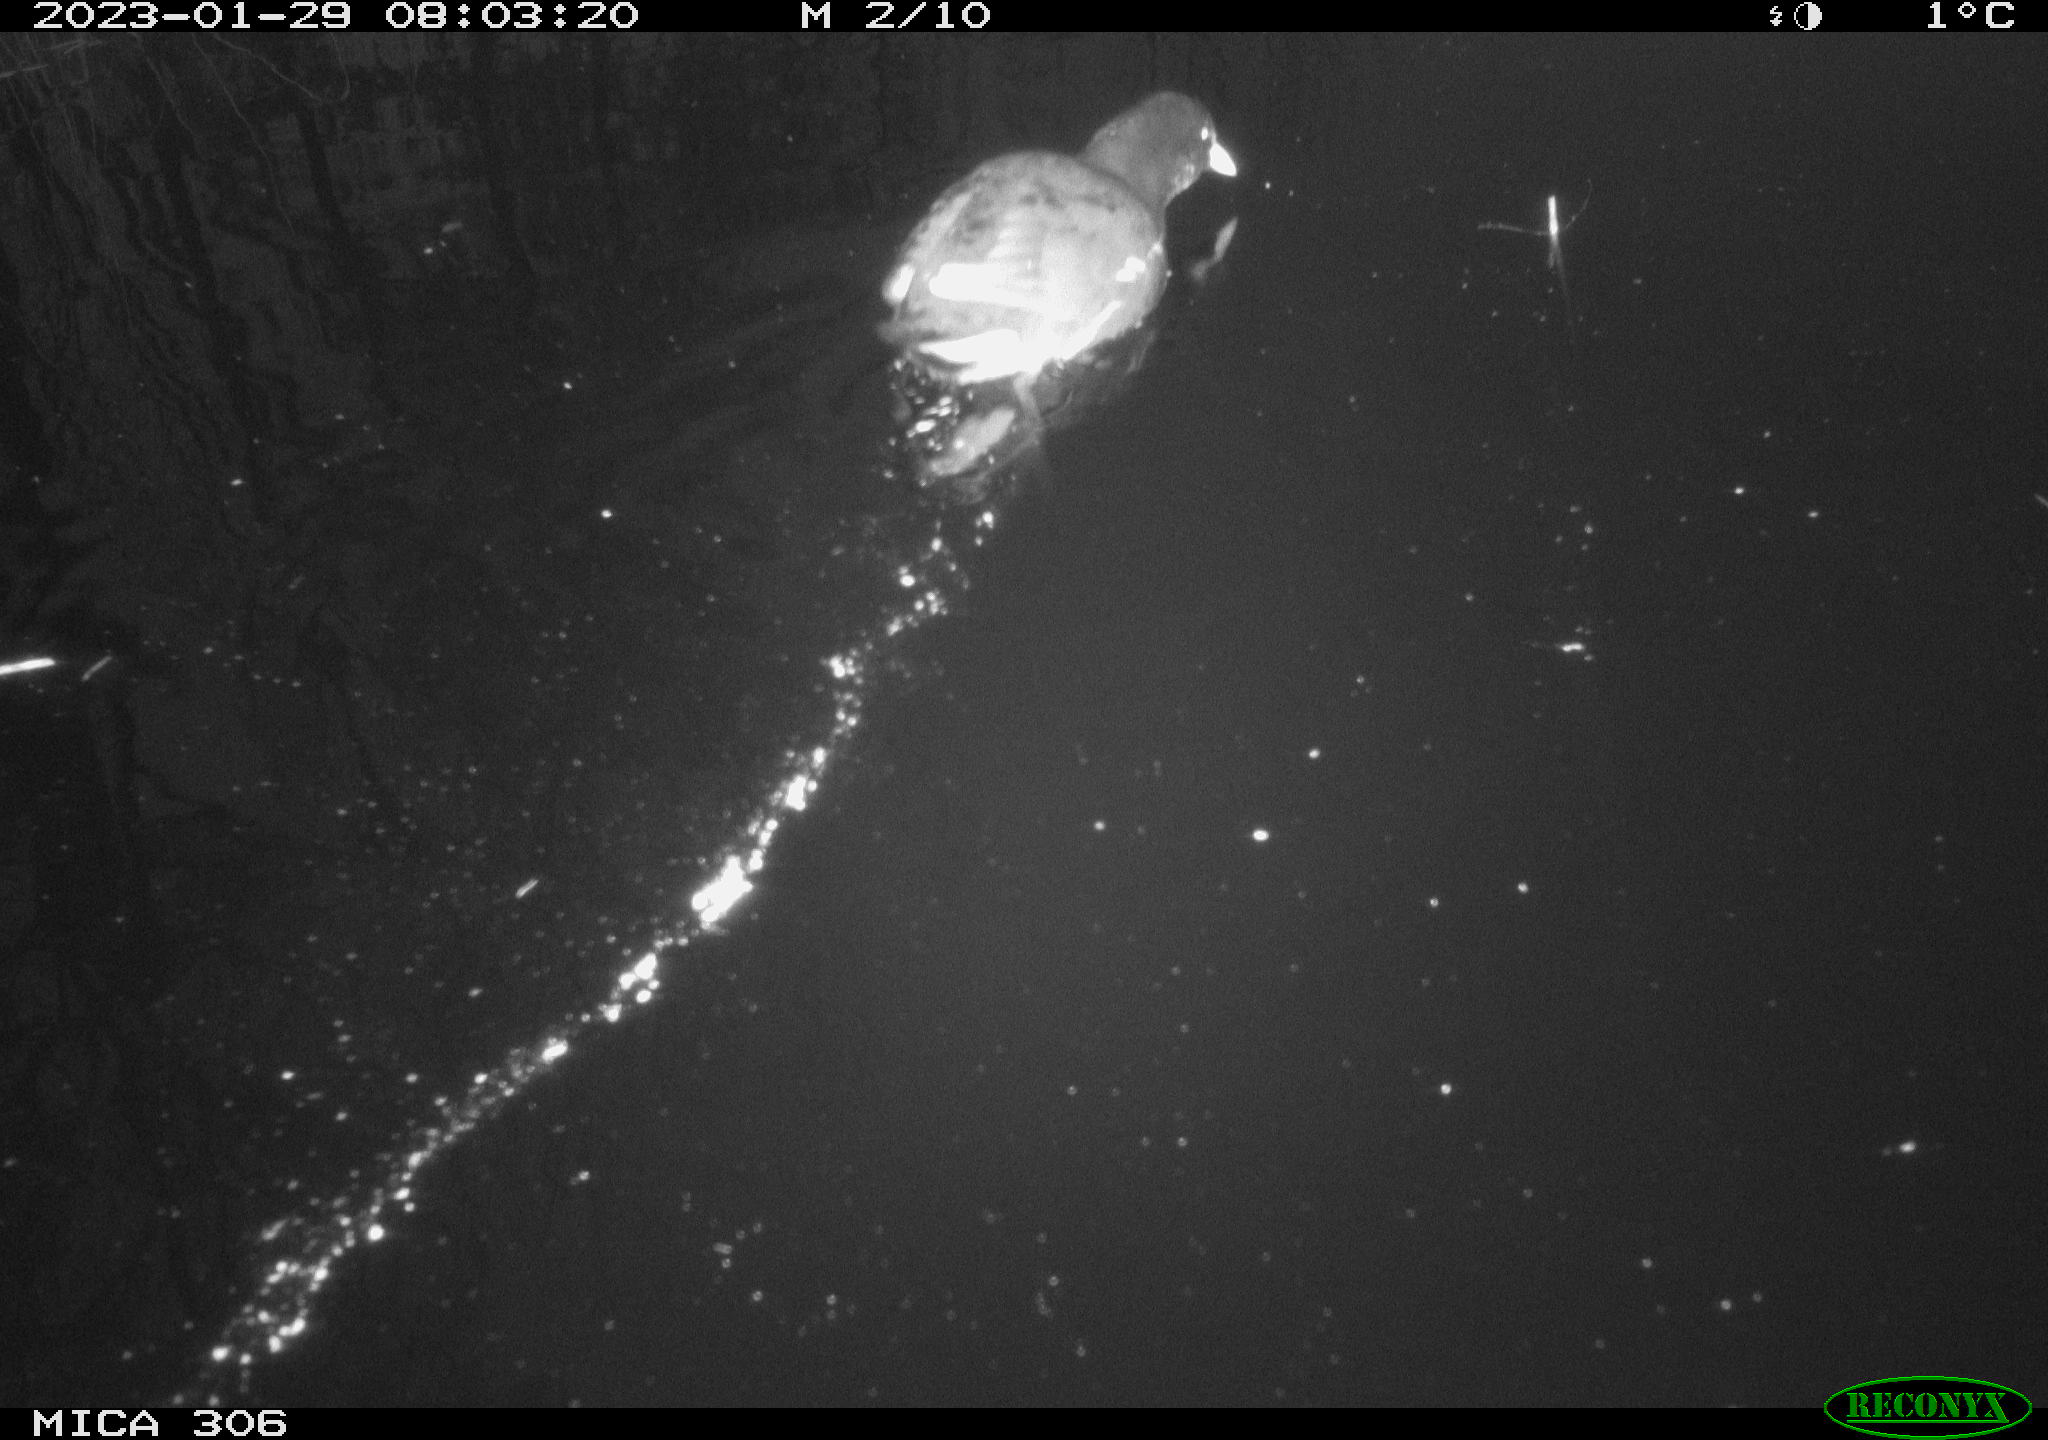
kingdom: Animalia
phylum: Chordata
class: Aves
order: Gruiformes
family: Rallidae
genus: Fulica
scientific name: Fulica atra
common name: Eurasian coot
